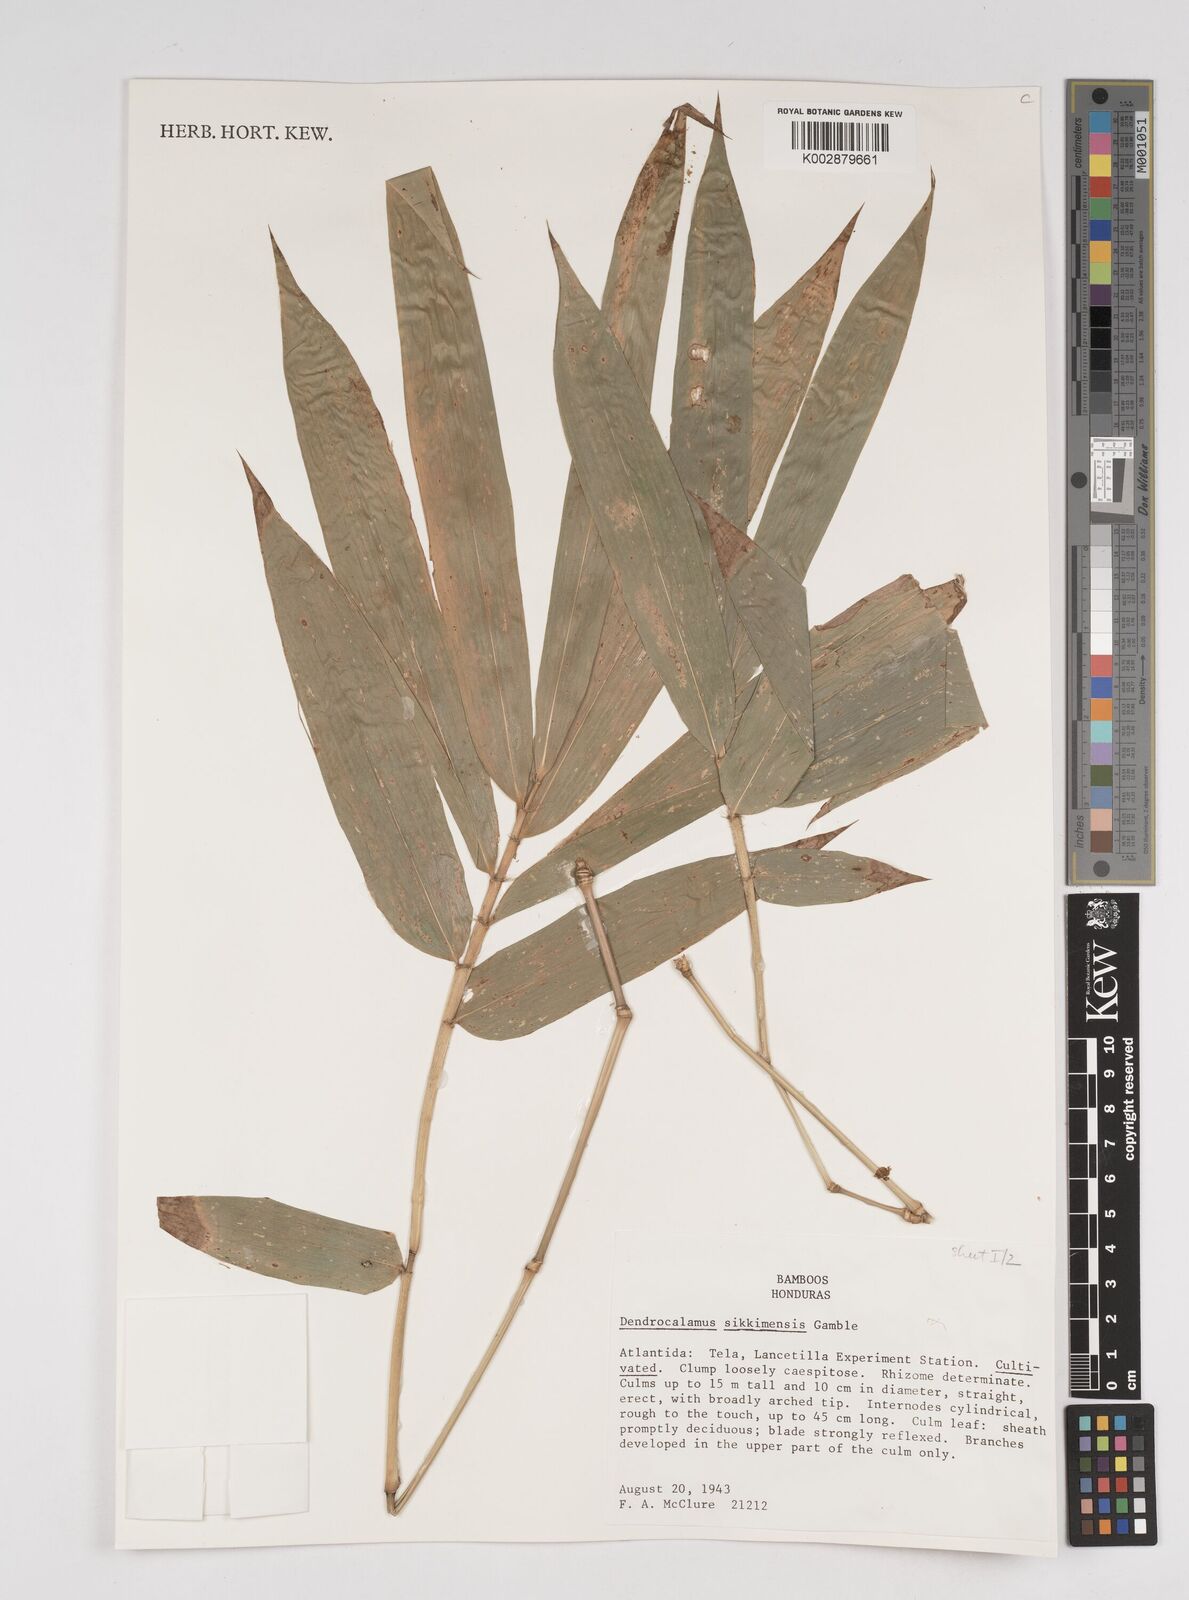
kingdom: Plantae
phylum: Tracheophyta
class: Liliopsida
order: Poales
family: Poaceae
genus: Dendrocalamus
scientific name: Dendrocalamus sikkimensis
